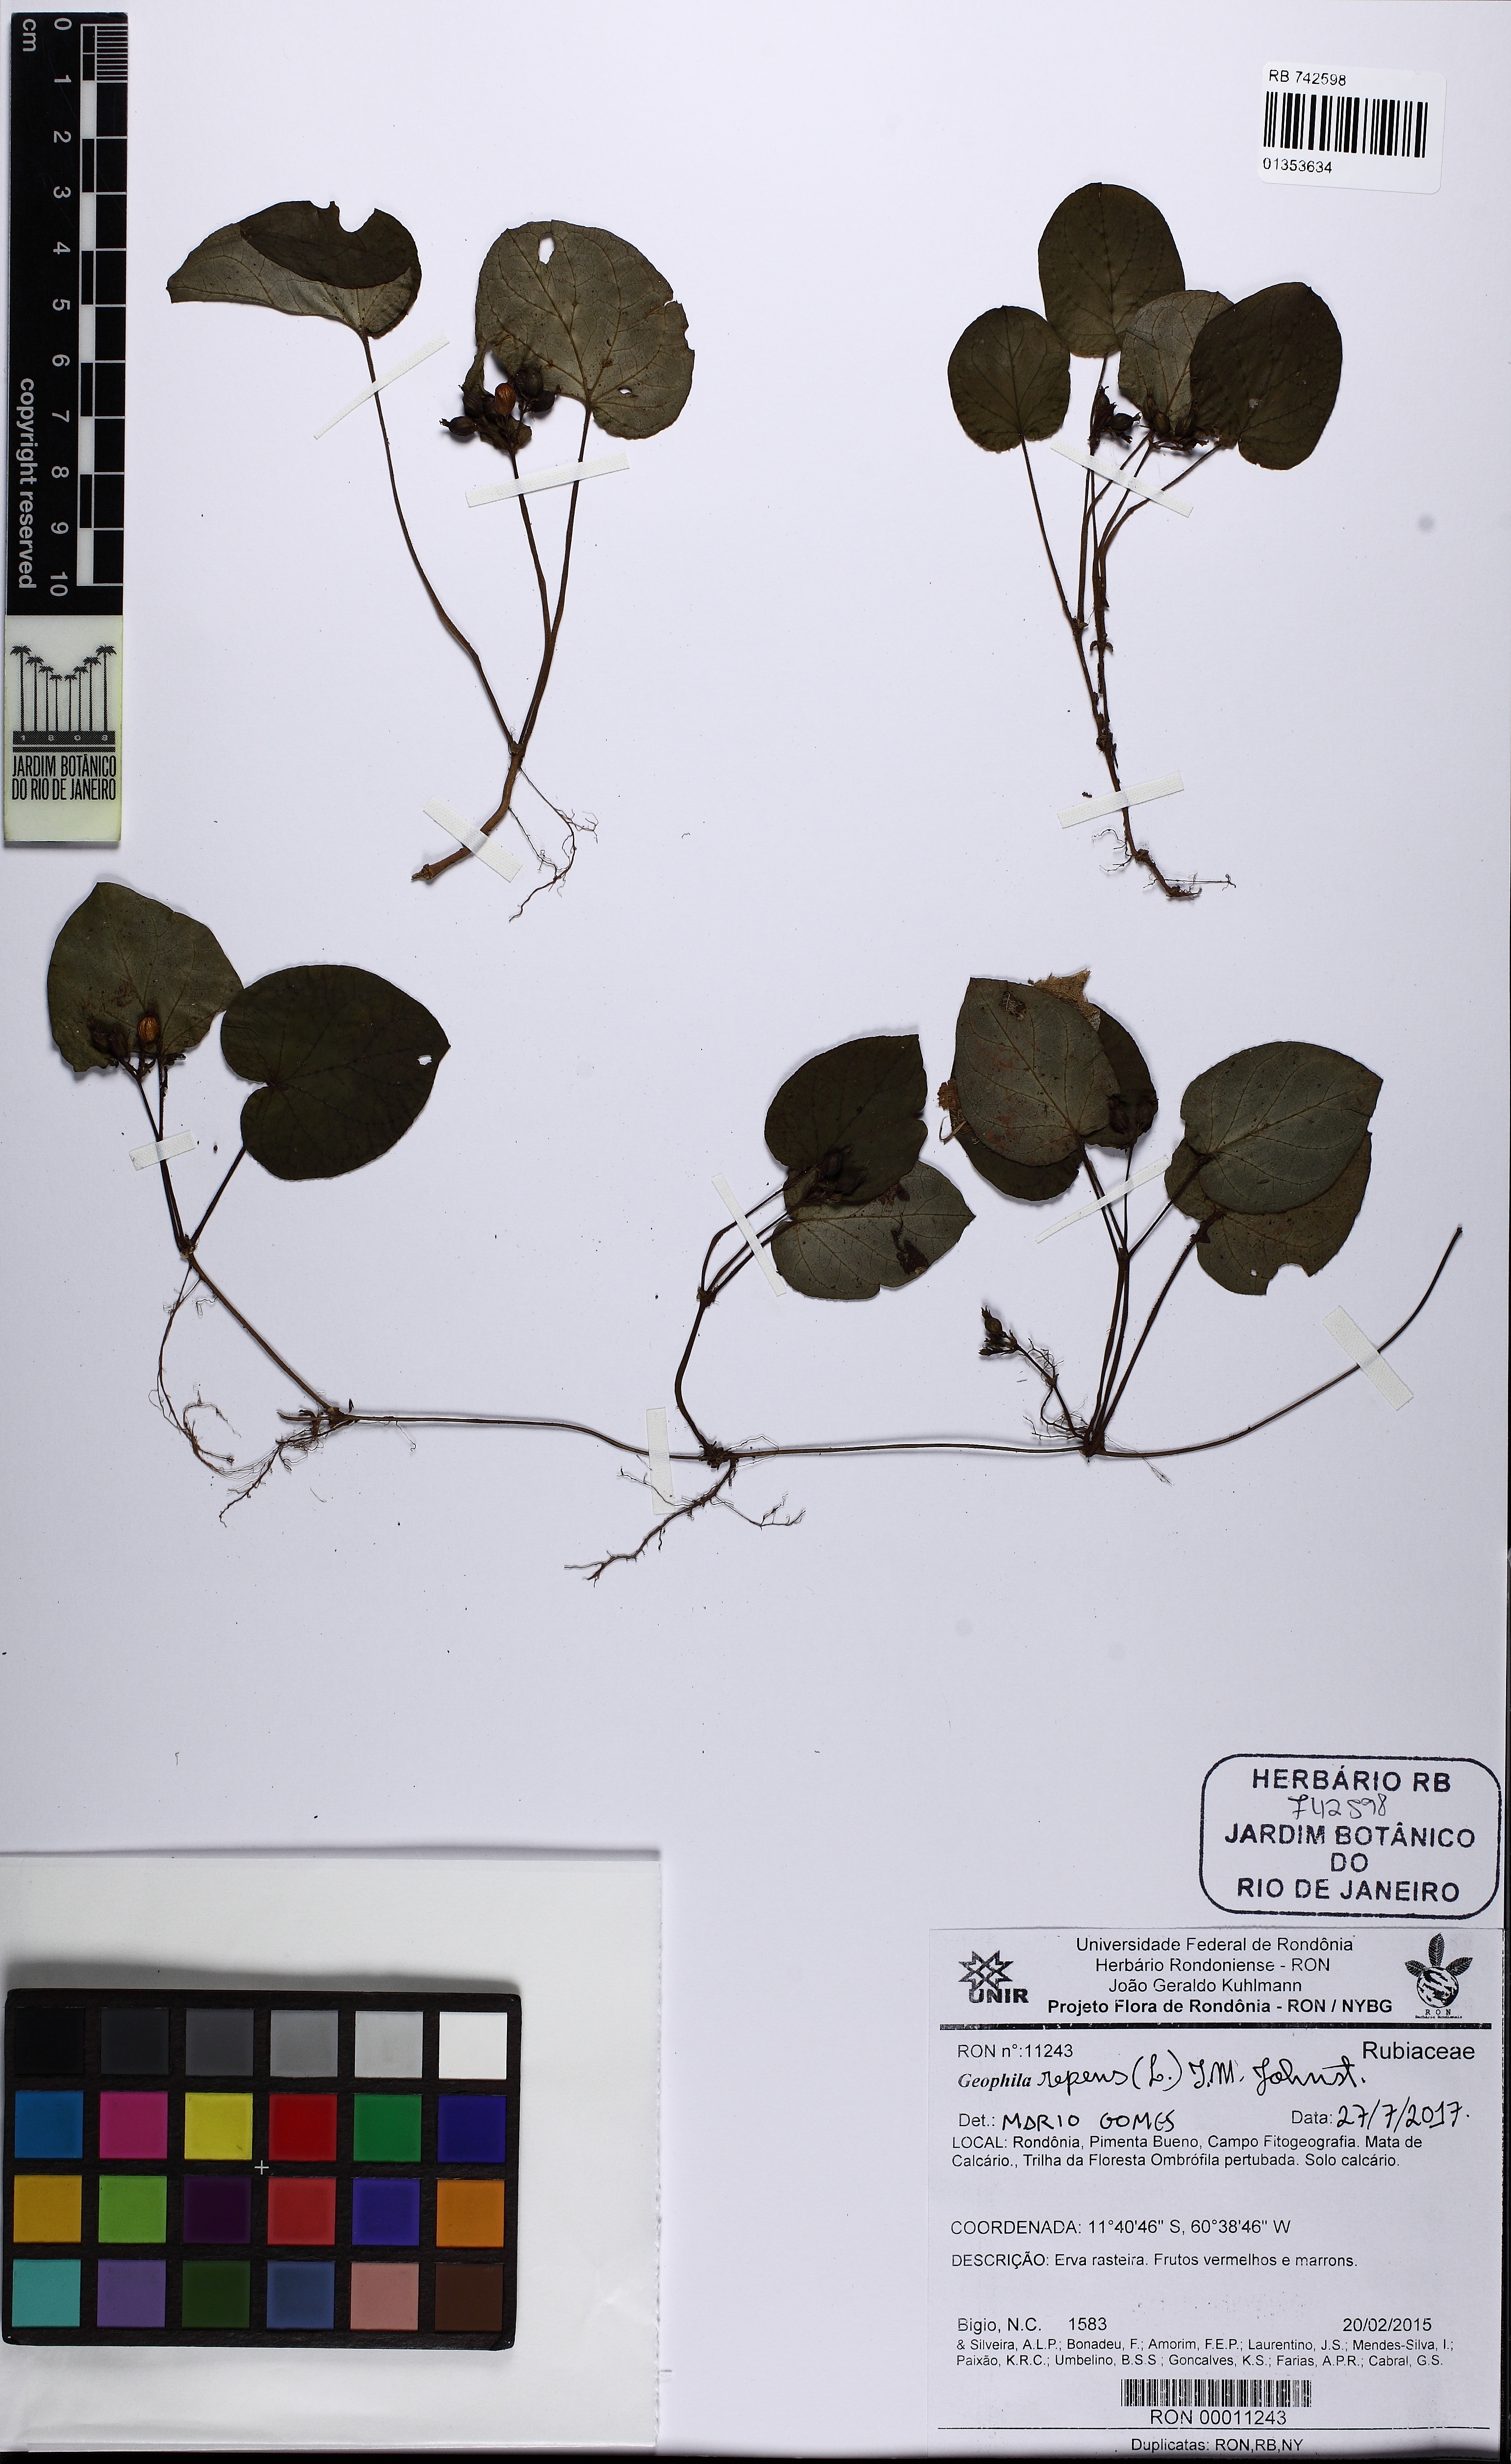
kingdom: Plantae
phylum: Tracheophyta
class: Magnoliopsida
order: Gentianales
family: Rubiaceae
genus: Geophila
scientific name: Geophila repens
